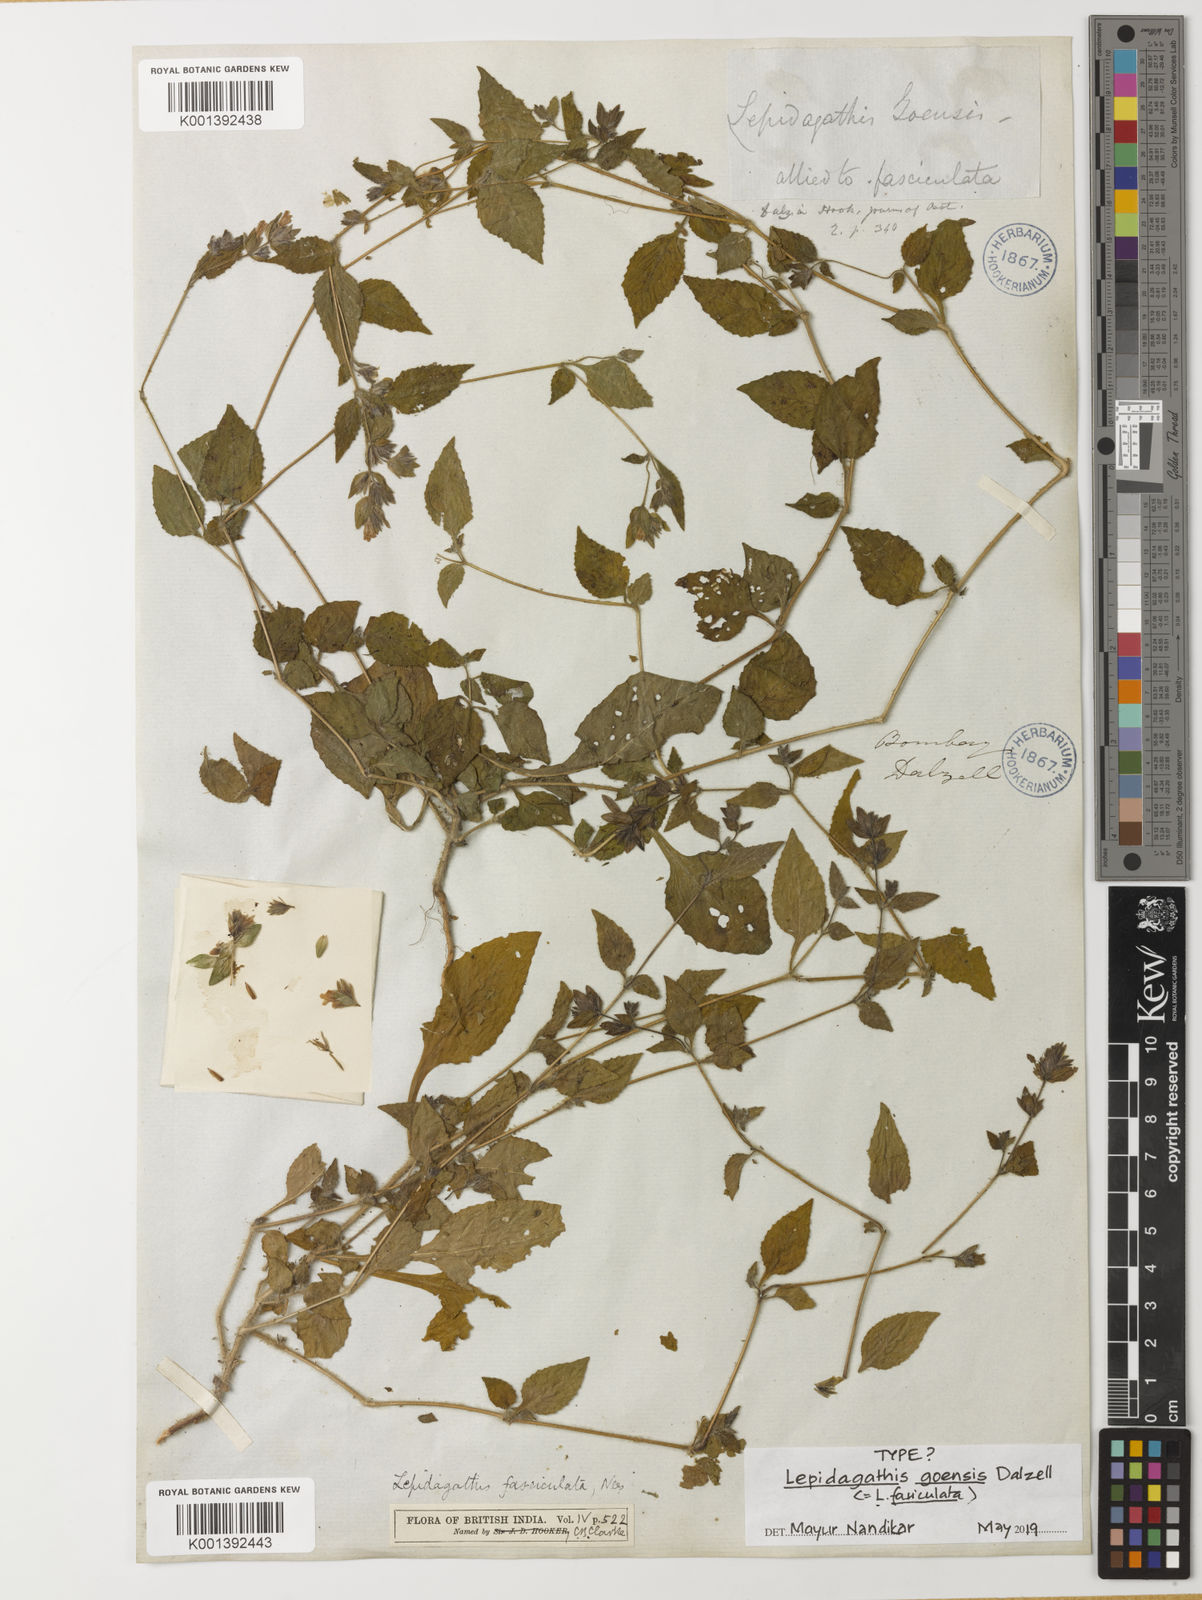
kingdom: Plantae
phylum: Tracheophyta
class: Magnoliopsida
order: Lamiales
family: Acanthaceae
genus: Lepidagathis
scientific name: Lepidagathis fasciculata
